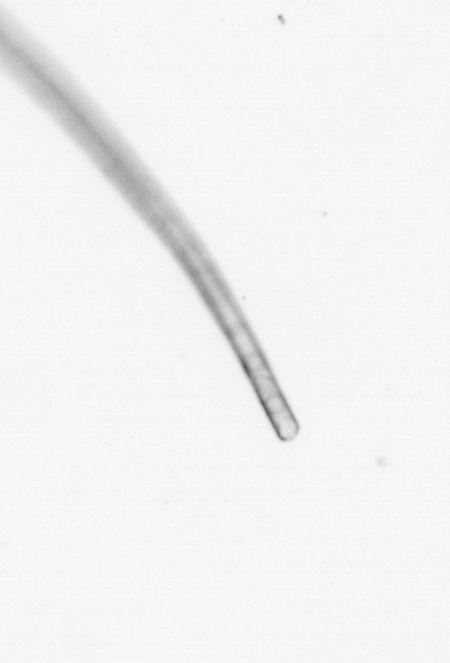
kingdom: Chromista
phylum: Ochrophyta
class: Bacillariophyceae
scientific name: Bacillariophyceae
